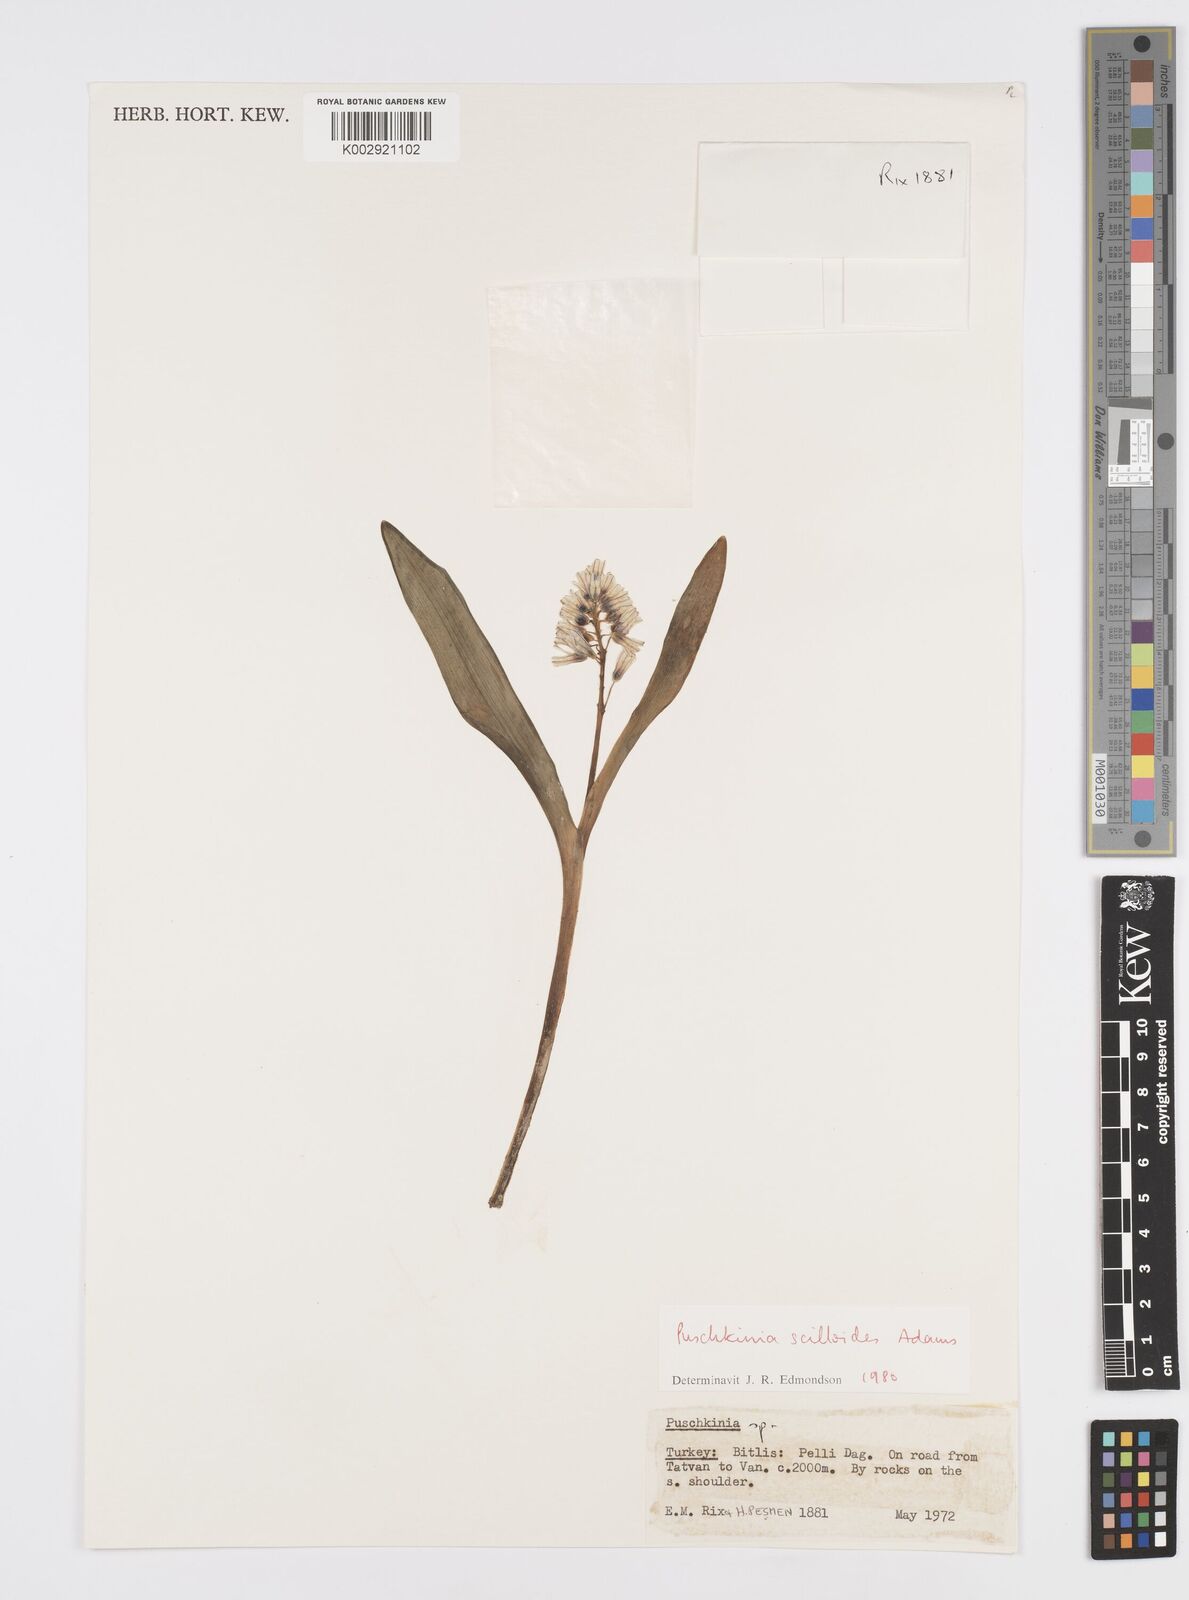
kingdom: Plantae
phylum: Tracheophyta
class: Liliopsida
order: Asparagales
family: Asparagaceae
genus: Puschkinia
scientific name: Puschkinia scilloides
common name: Striped squill
